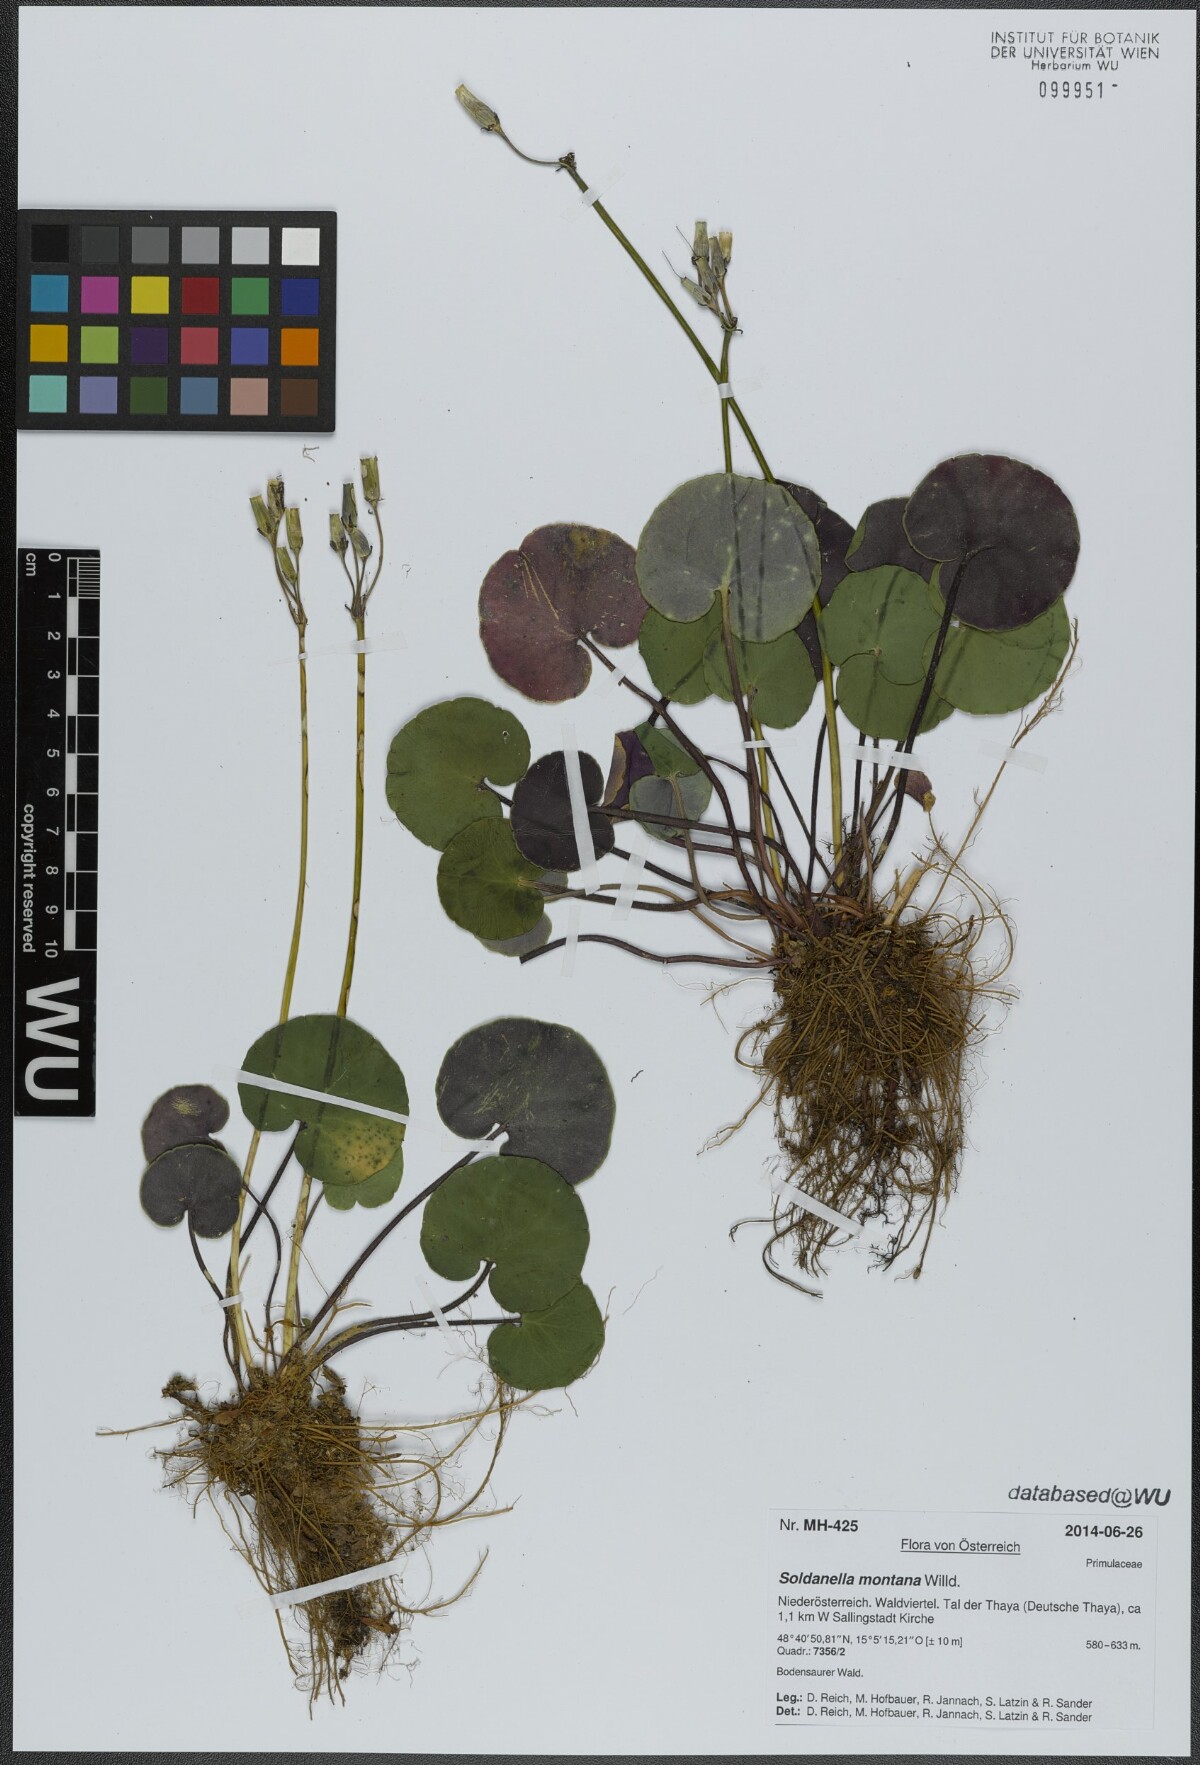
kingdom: Plantae
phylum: Tracheophyta
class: Magnoliopsida
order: Ericales
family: Primulaceae
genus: Soldanella
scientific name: Soldanella montana
